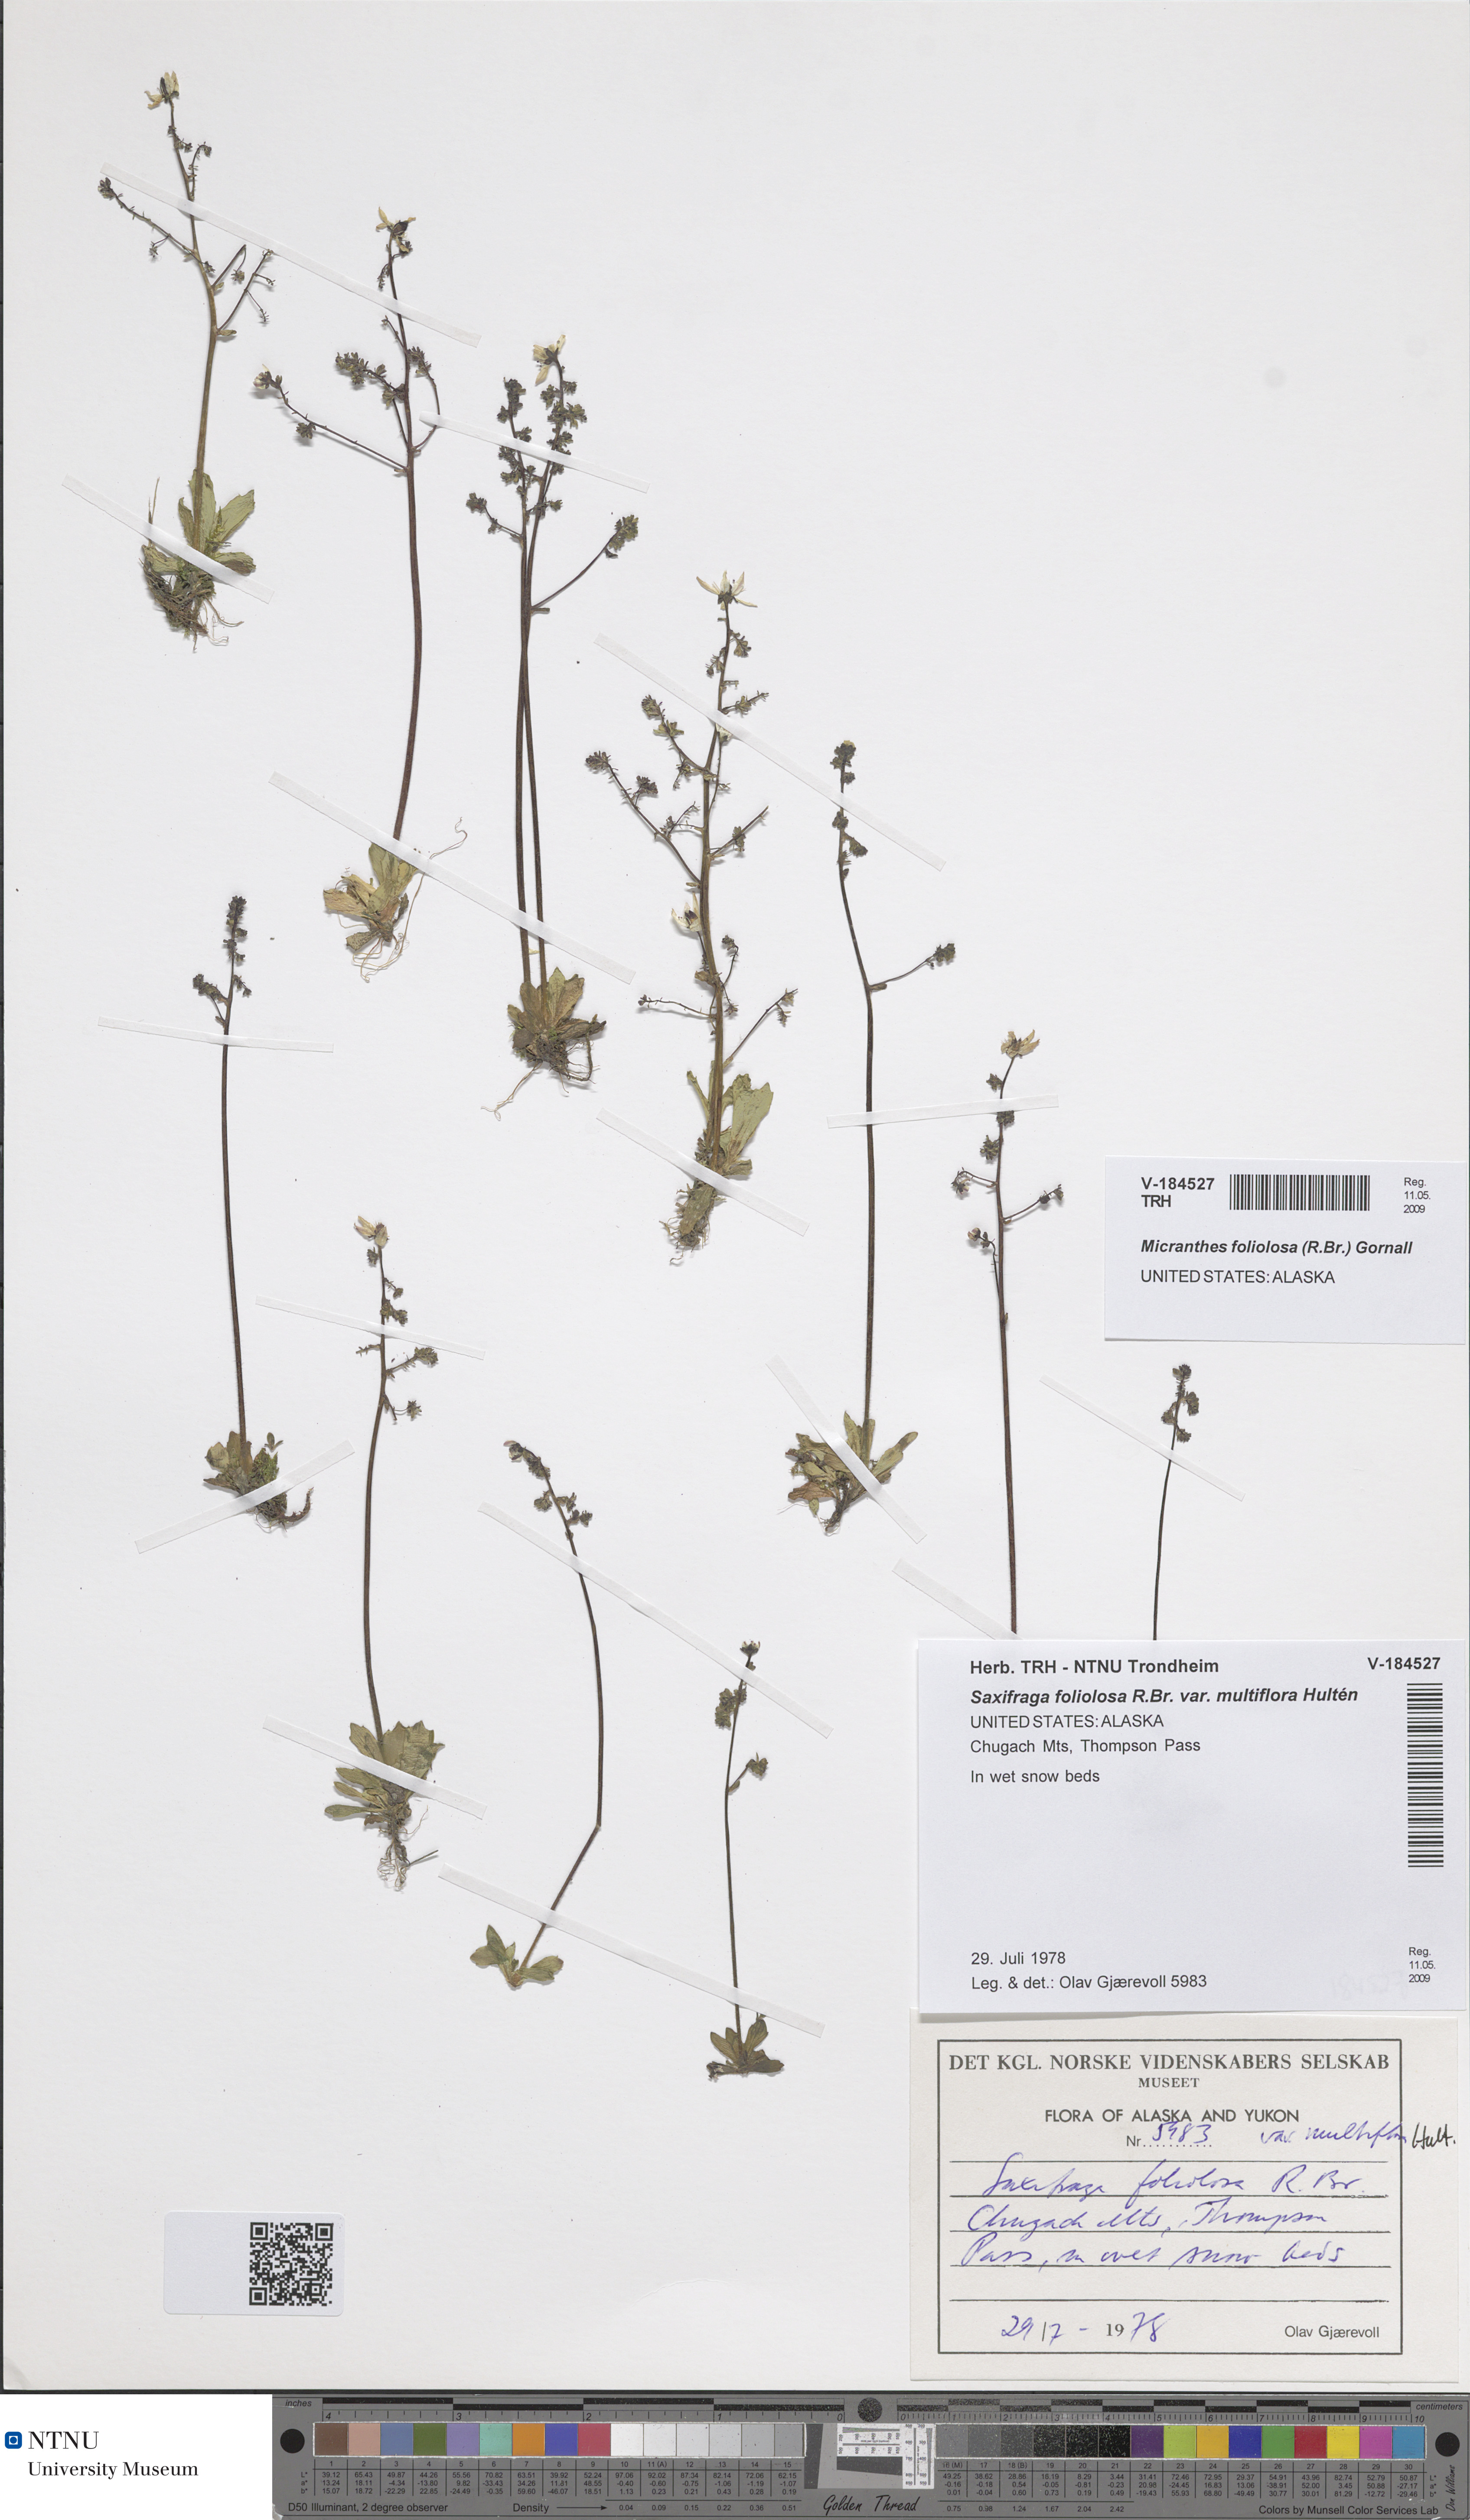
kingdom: Plantae
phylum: Tracheophyta
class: Magnoliopsida
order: Saxifragales
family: Saxifragaceae
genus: Micranthes
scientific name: Micranthes foliolosa
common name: Leafystem saxifrage
